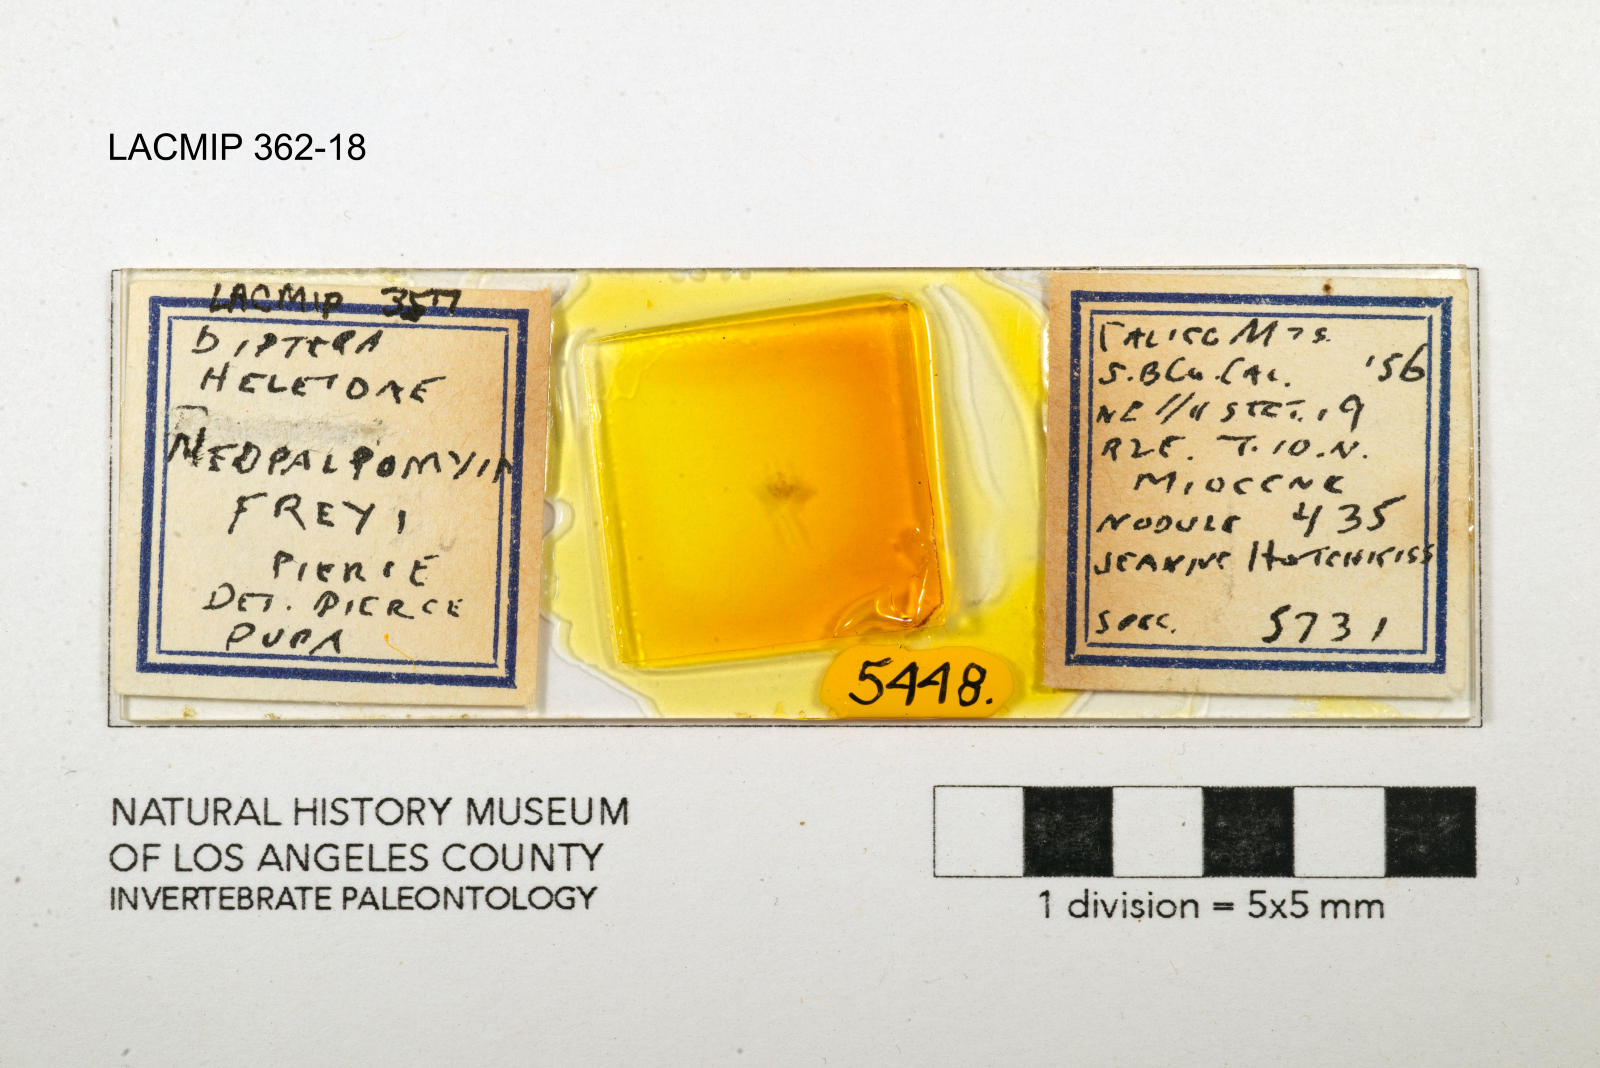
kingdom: Animalia
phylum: Arthropoda
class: Insecta
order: Diptera
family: Ceratopogonidae
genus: Palpomyia
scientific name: Palpomyia freyi
